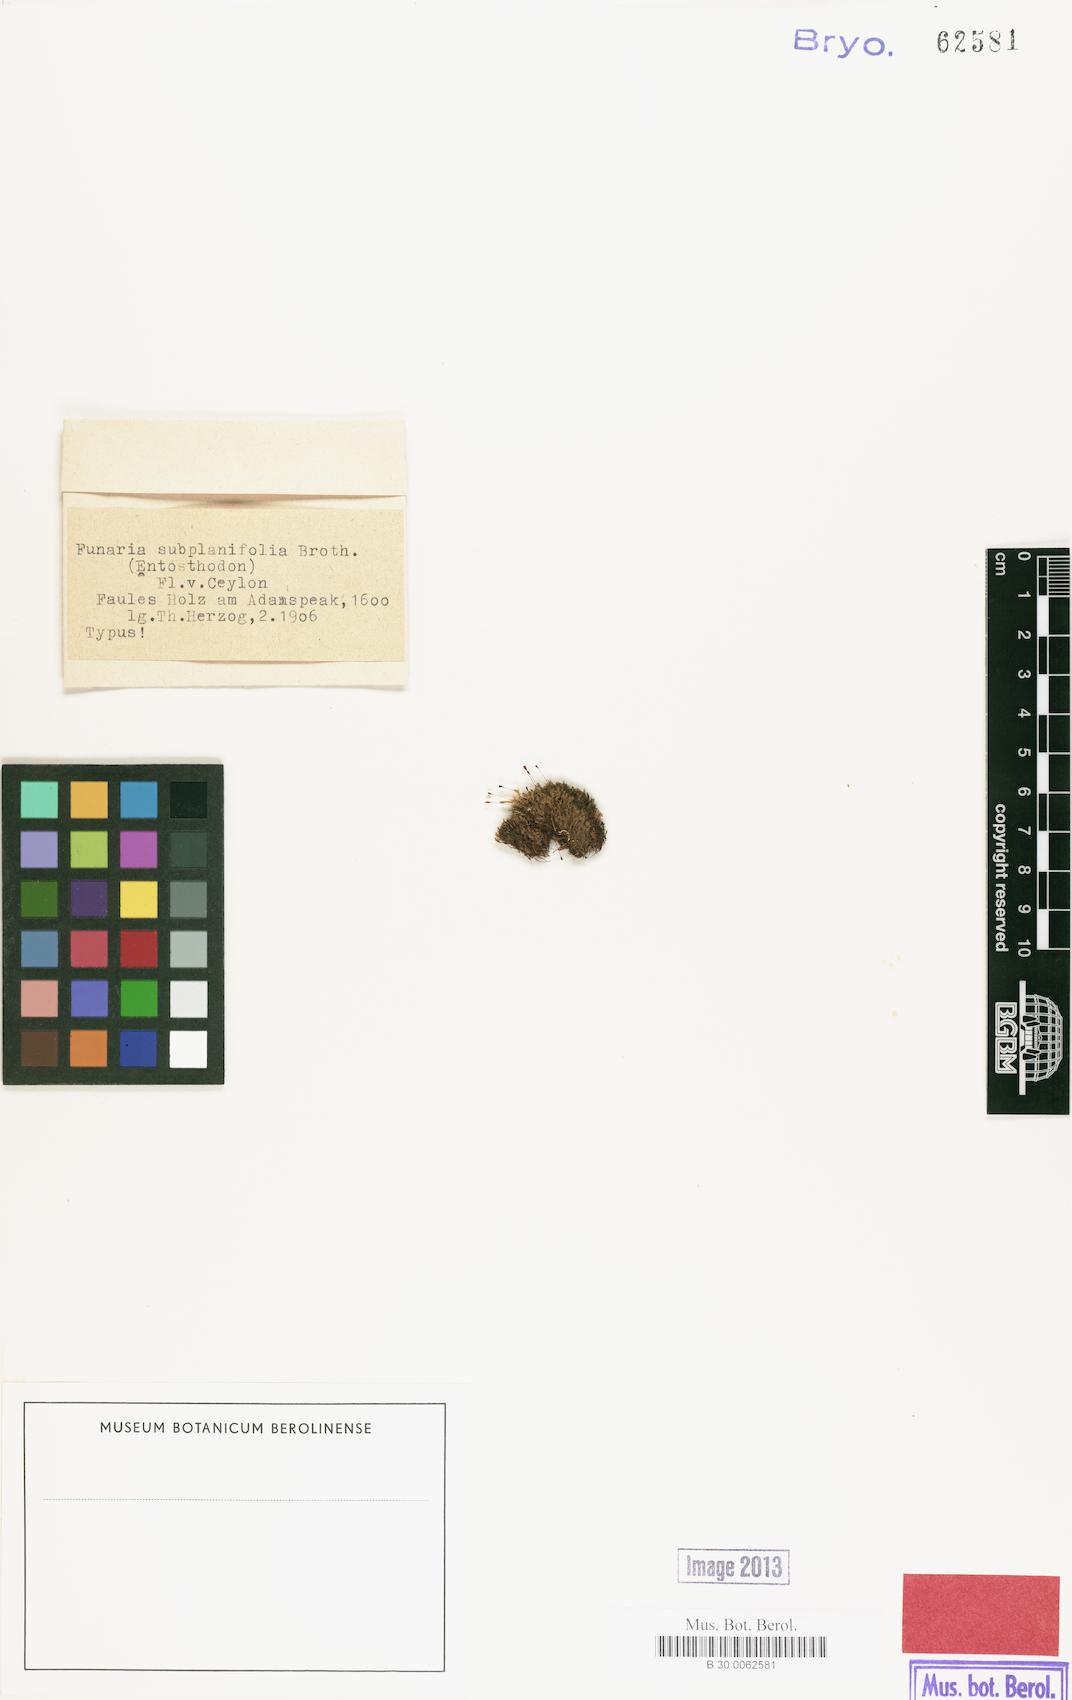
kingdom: Plantae
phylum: Bryophyta
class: Bryopsida
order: Funariales
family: Funariaceae
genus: Funaria
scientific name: Funaria subplanifolia
